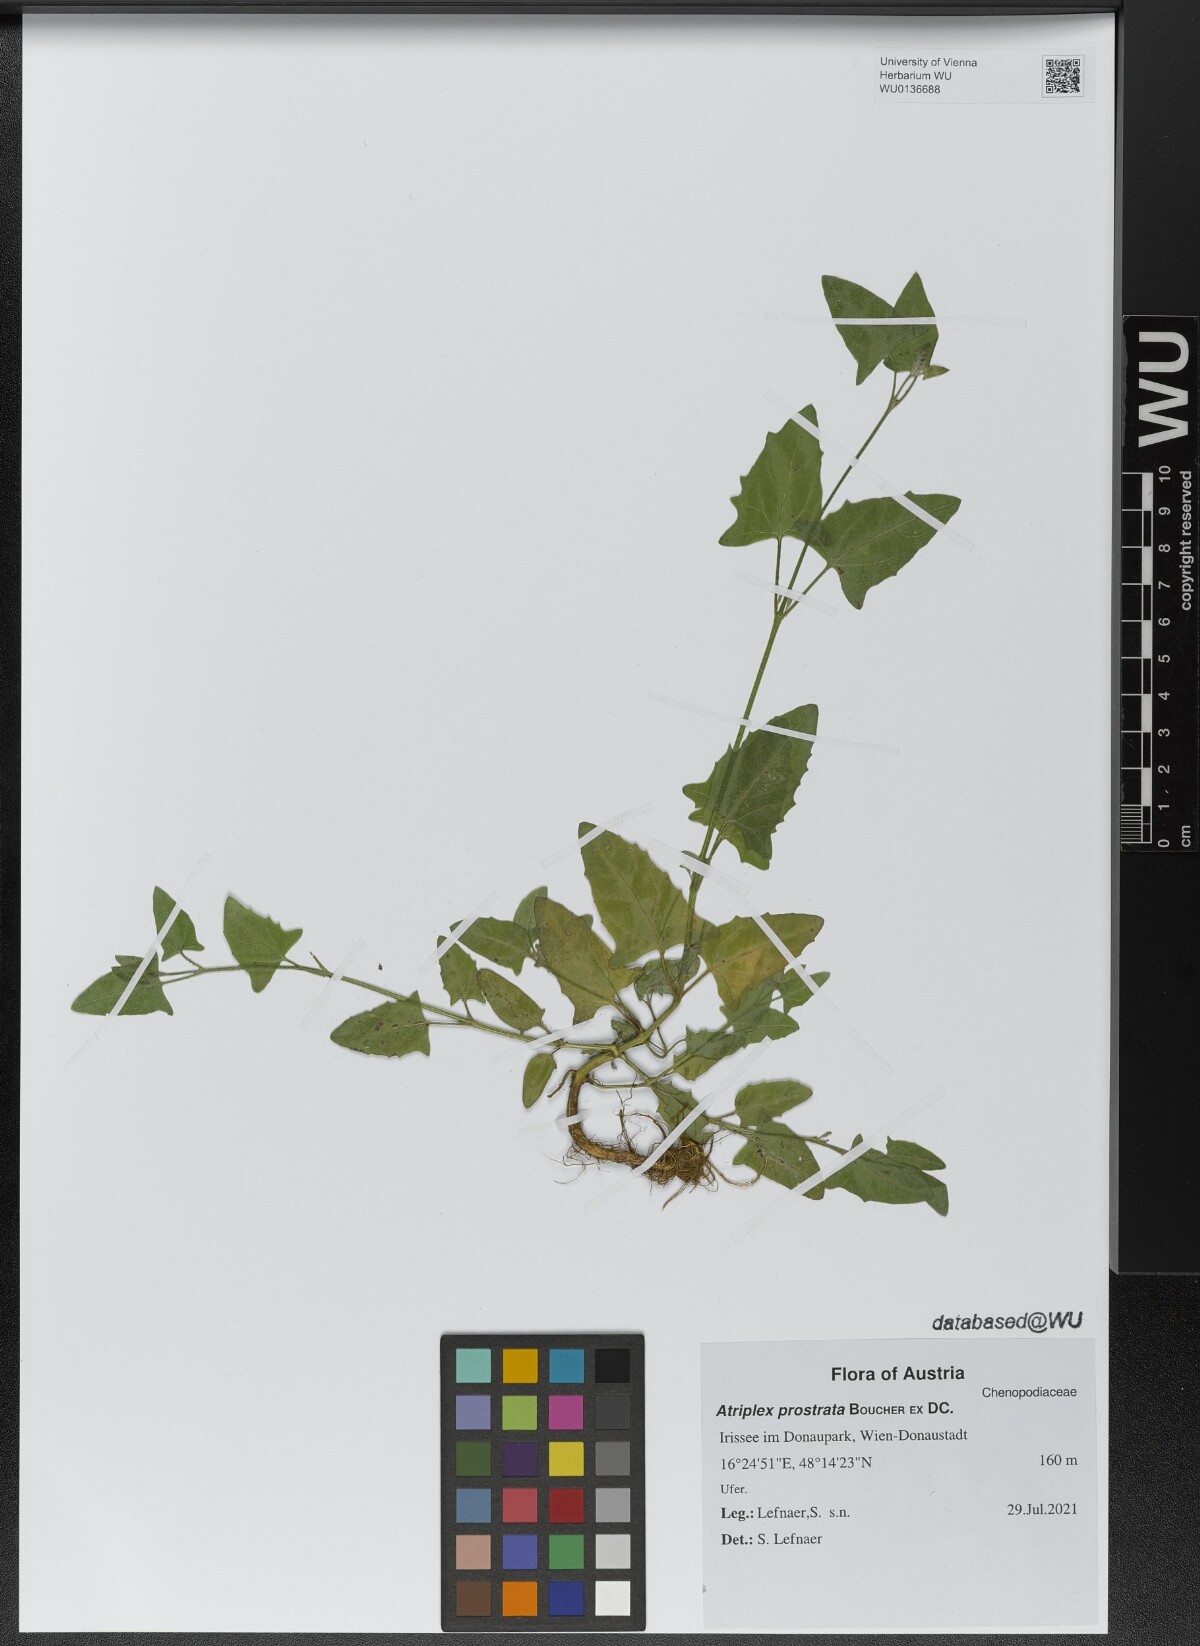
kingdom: Plantae
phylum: Tracheophyta
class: Magnoliopsida
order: Caryophyllales
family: Amaranthaceae
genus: Atriplex
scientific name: Atriplex prostrata
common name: Spear-leaved orache
